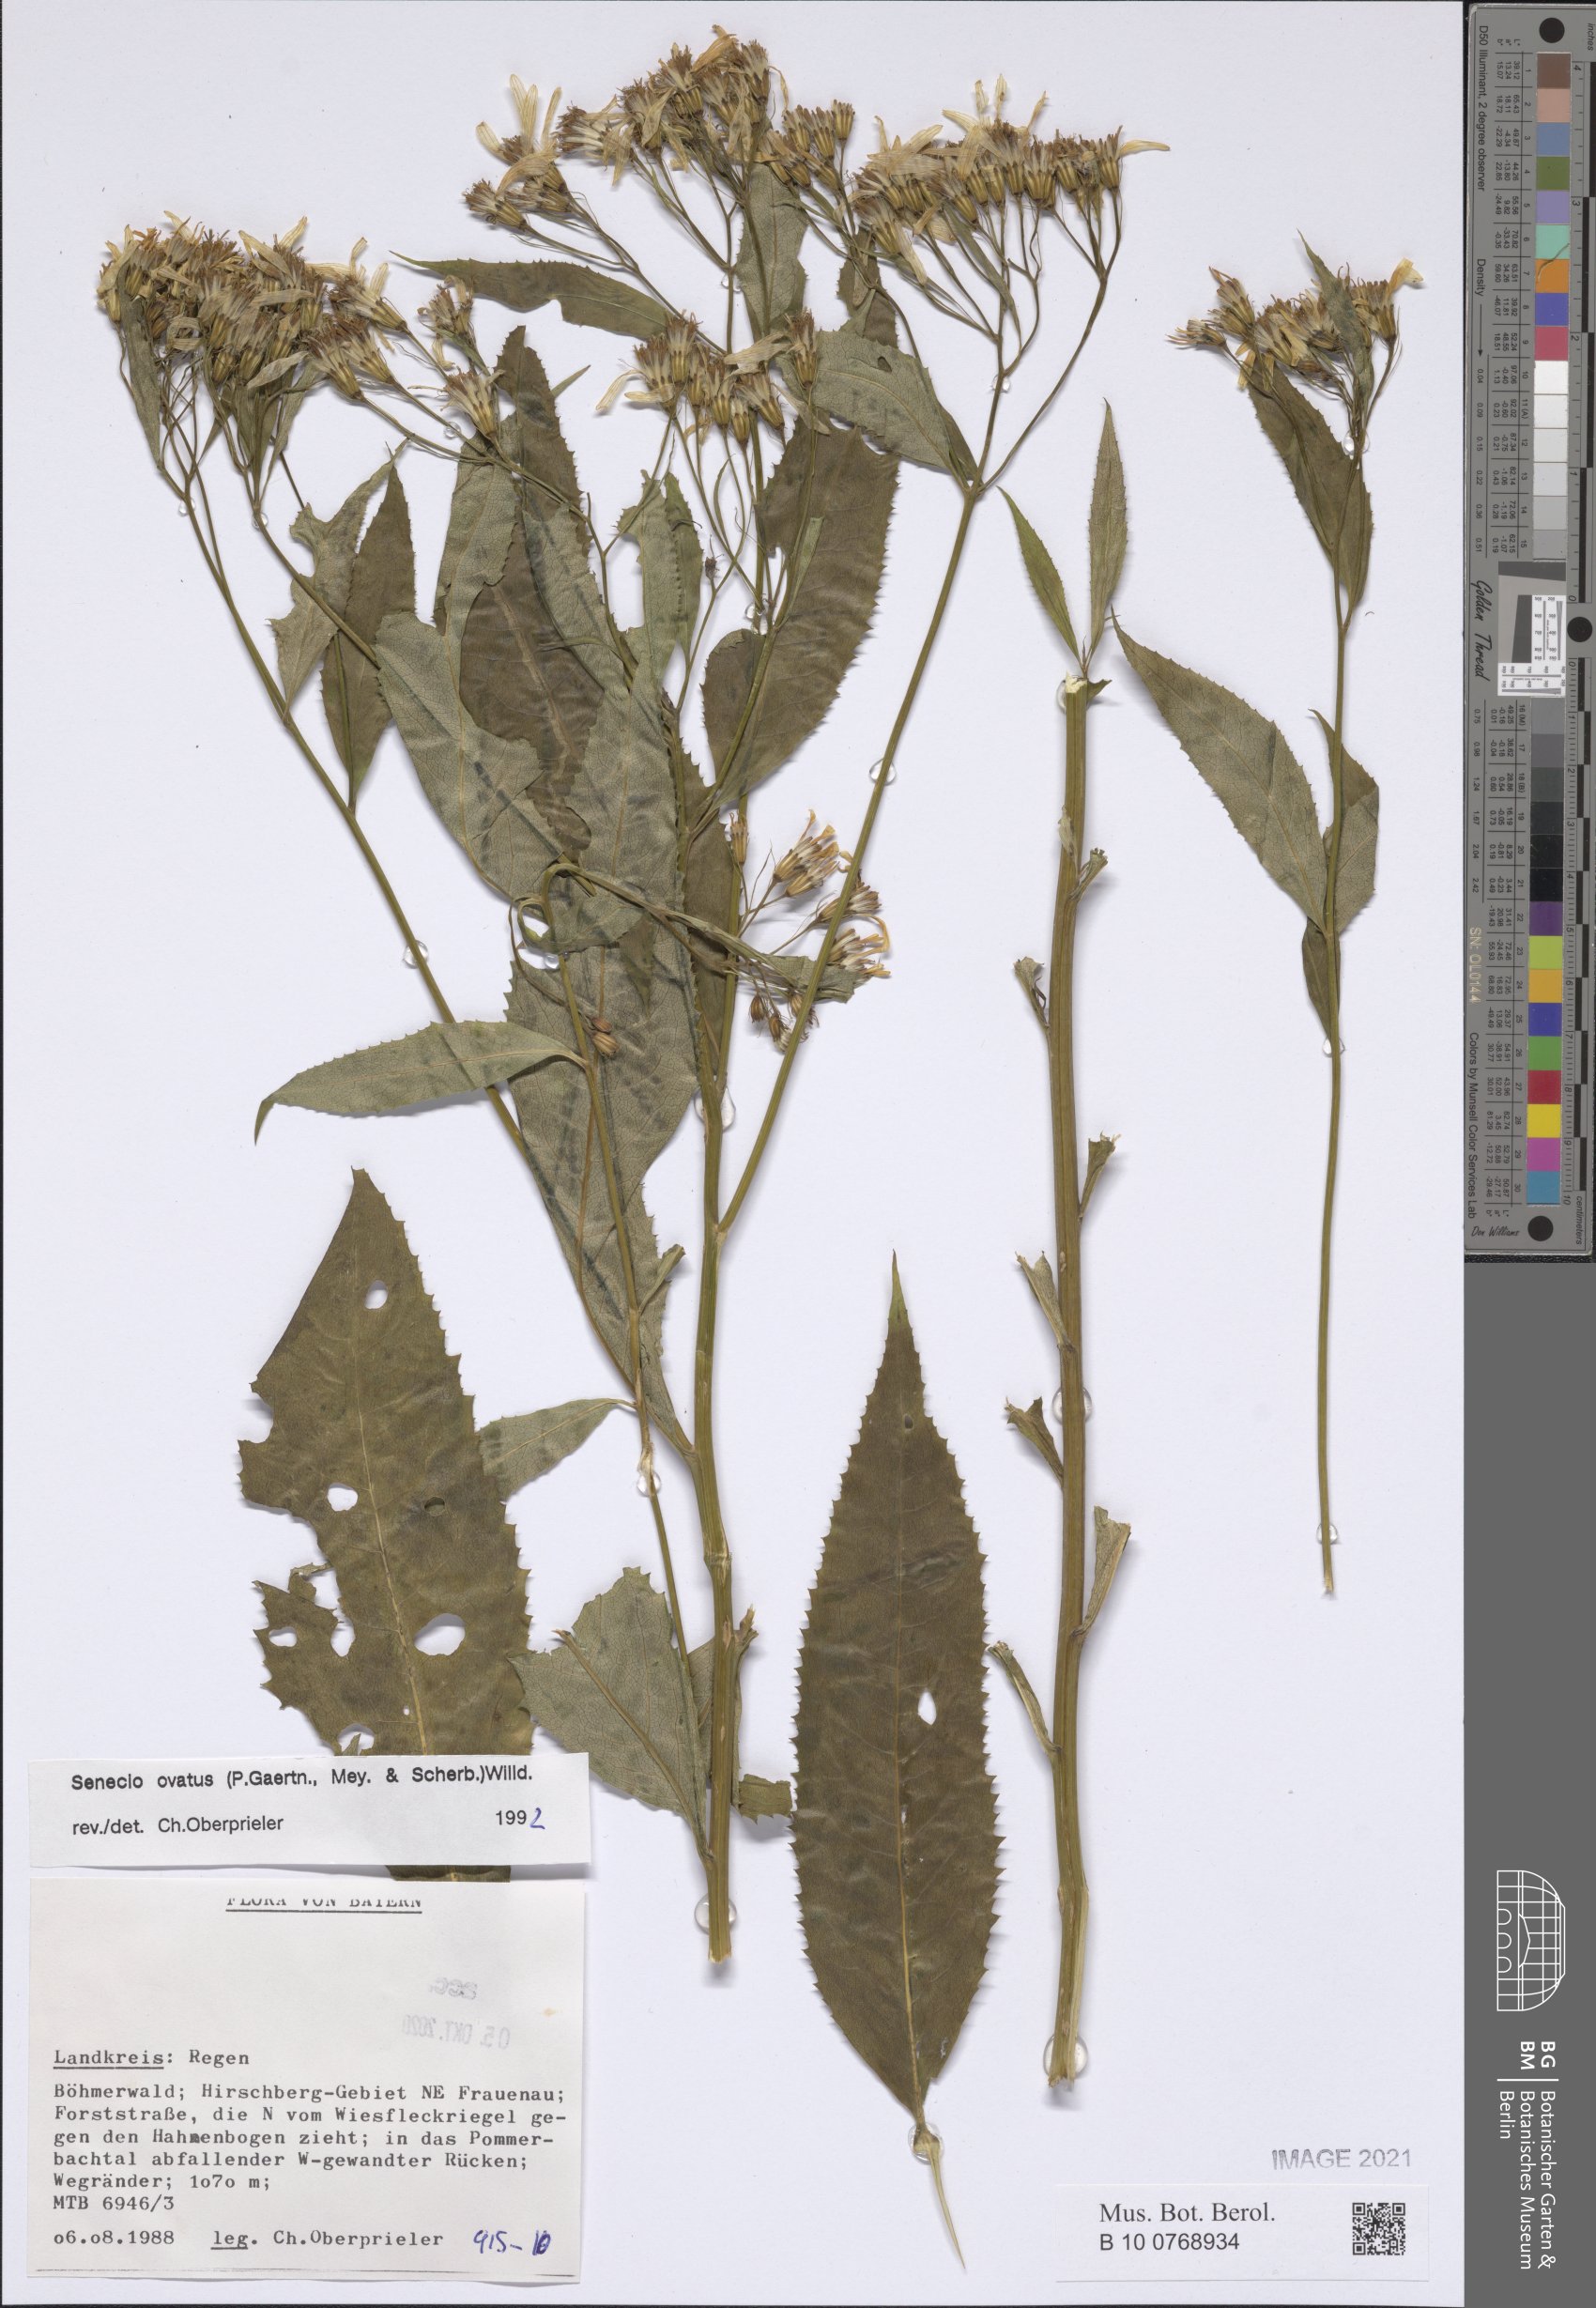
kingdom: Plantae
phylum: Tracheophyta
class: Magnoliopsida
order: Asterales
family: Asteraceae
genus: Senecio
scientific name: Senecio ovatus
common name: Wood ragwort
